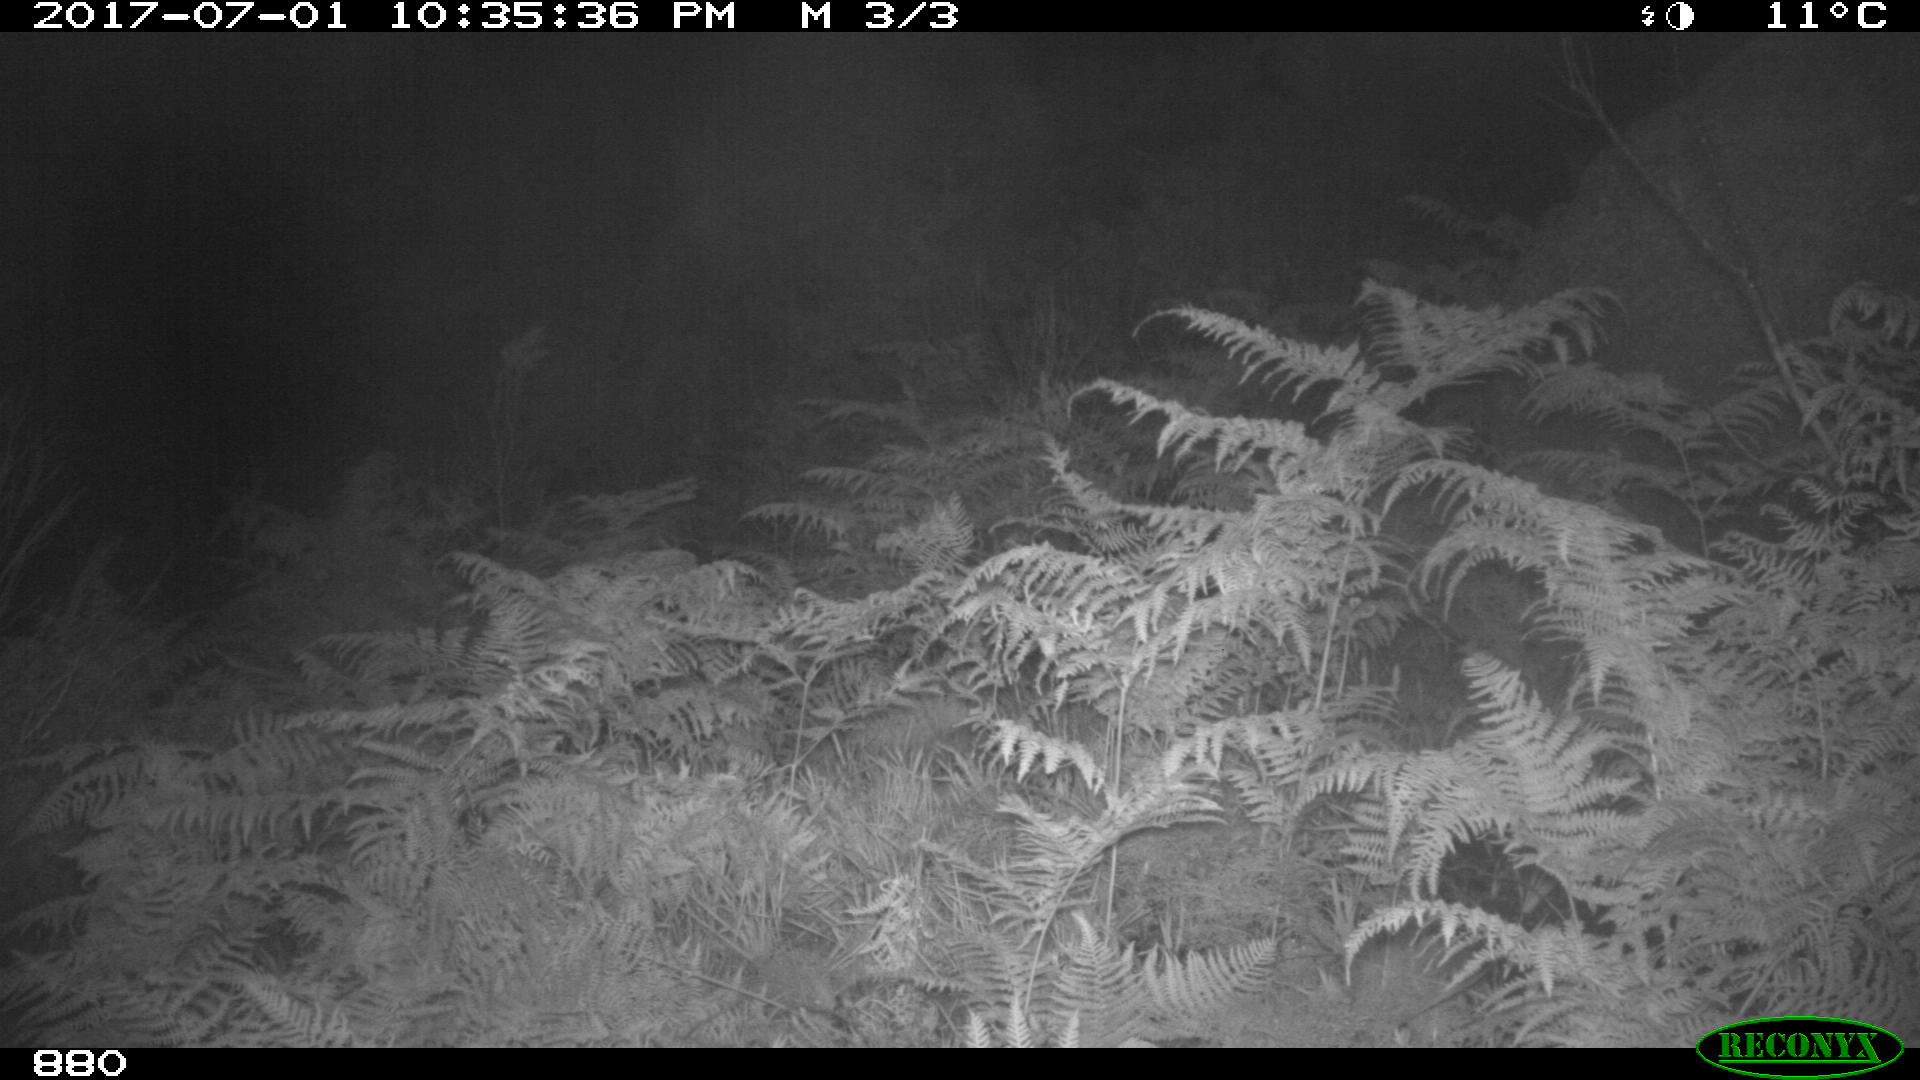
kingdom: Animalia
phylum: Chordata
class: Mammalia
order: Perissodactyla
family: Equidae
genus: Equus
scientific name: Equus caballus
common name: Horse
